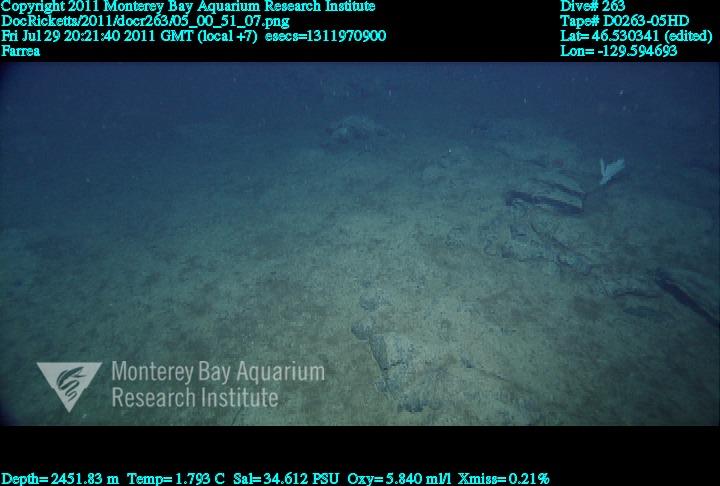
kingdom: Animalia
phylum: Porifera
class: Hexactinellida
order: Sceptrulophora
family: Farreidae
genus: Farrea
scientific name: Farrea
